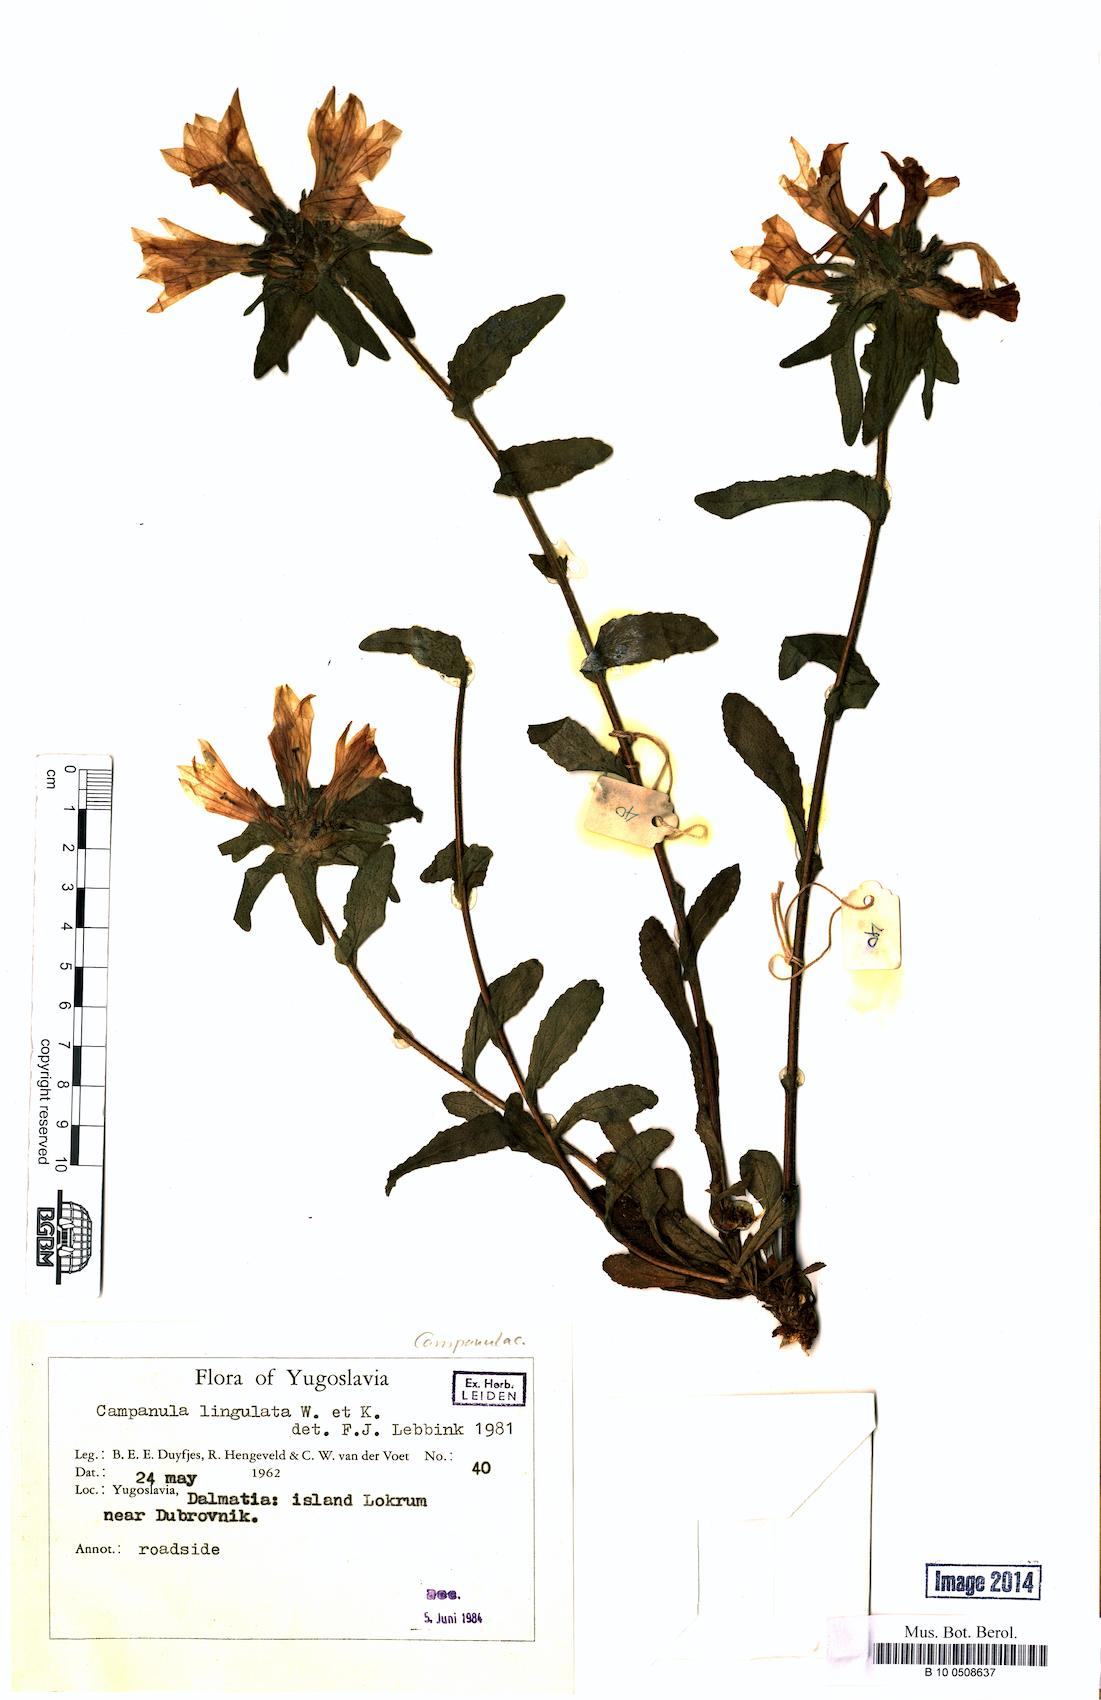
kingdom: Plantae
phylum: Tracheophyta
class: Magnoliopsida
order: Asterales
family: Campanulaceae
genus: Campanula
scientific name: Campanula lingulata
